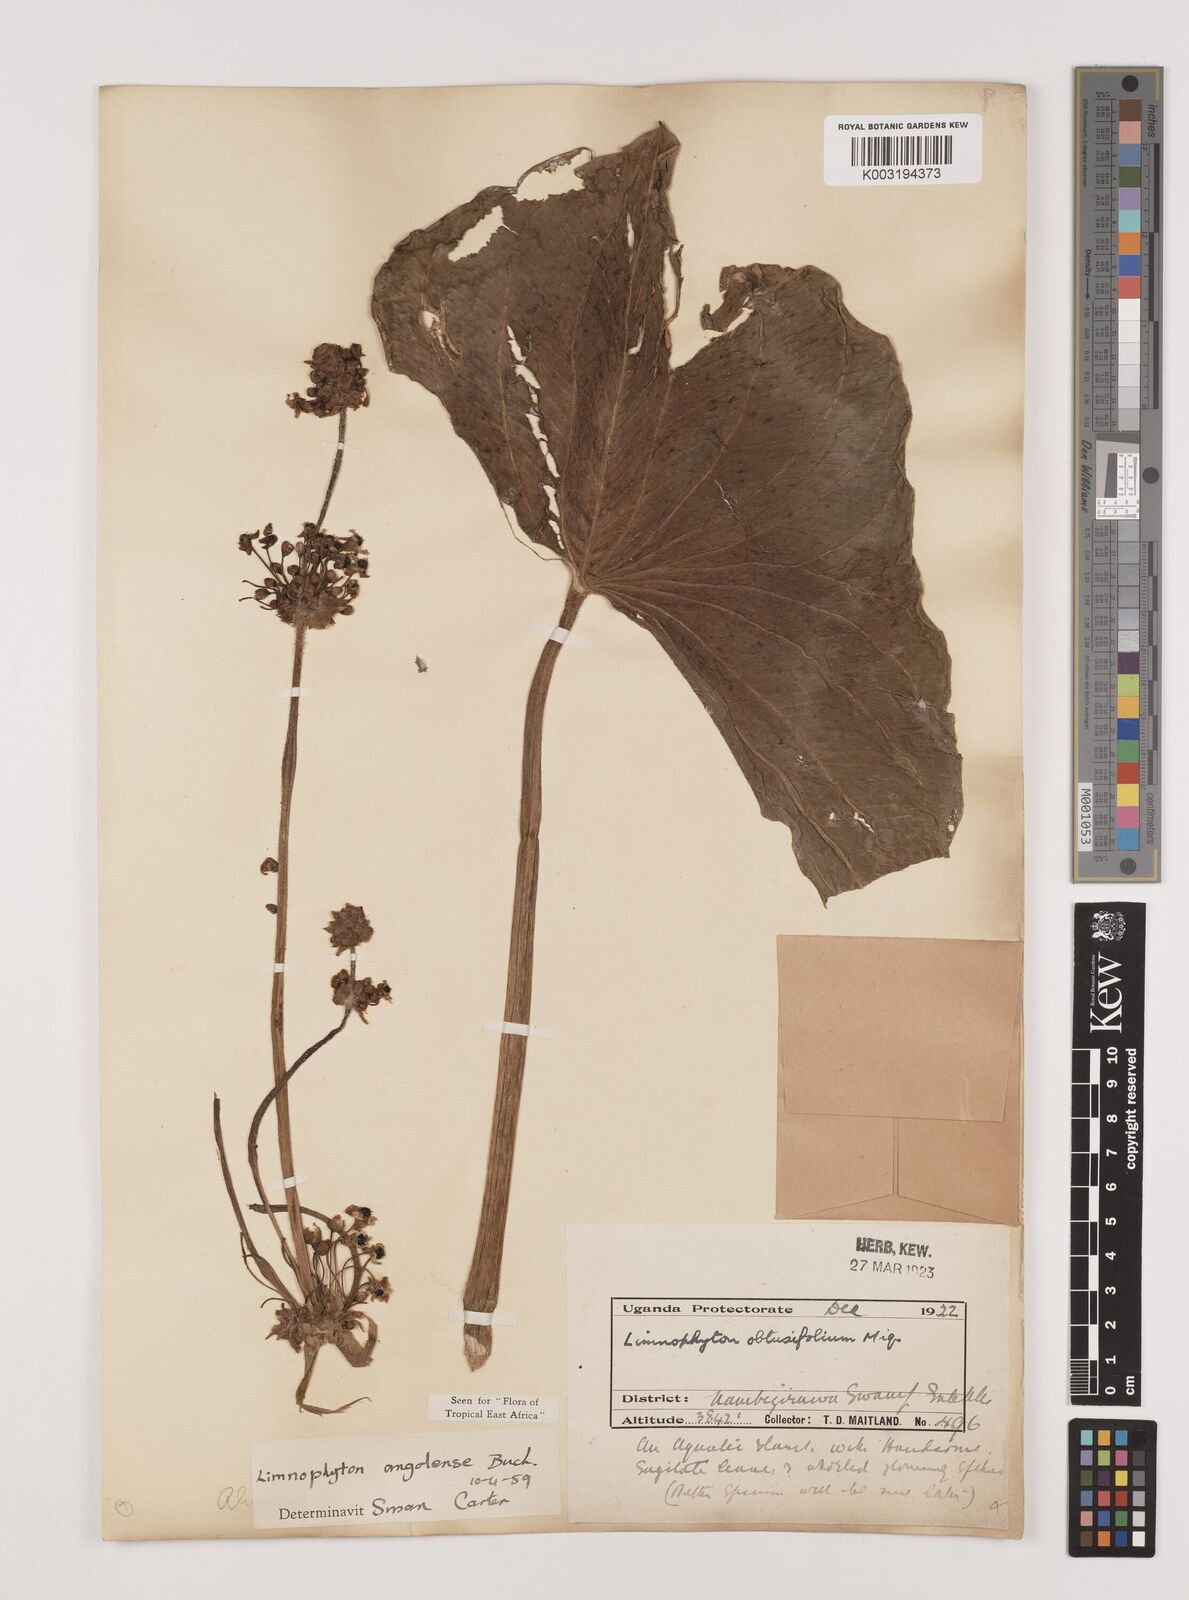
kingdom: Plantae
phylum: Tracheophyta
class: Liliopsida
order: Alismatales
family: Alismataceae
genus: Limnophyton
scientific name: Limnophyton angolense
